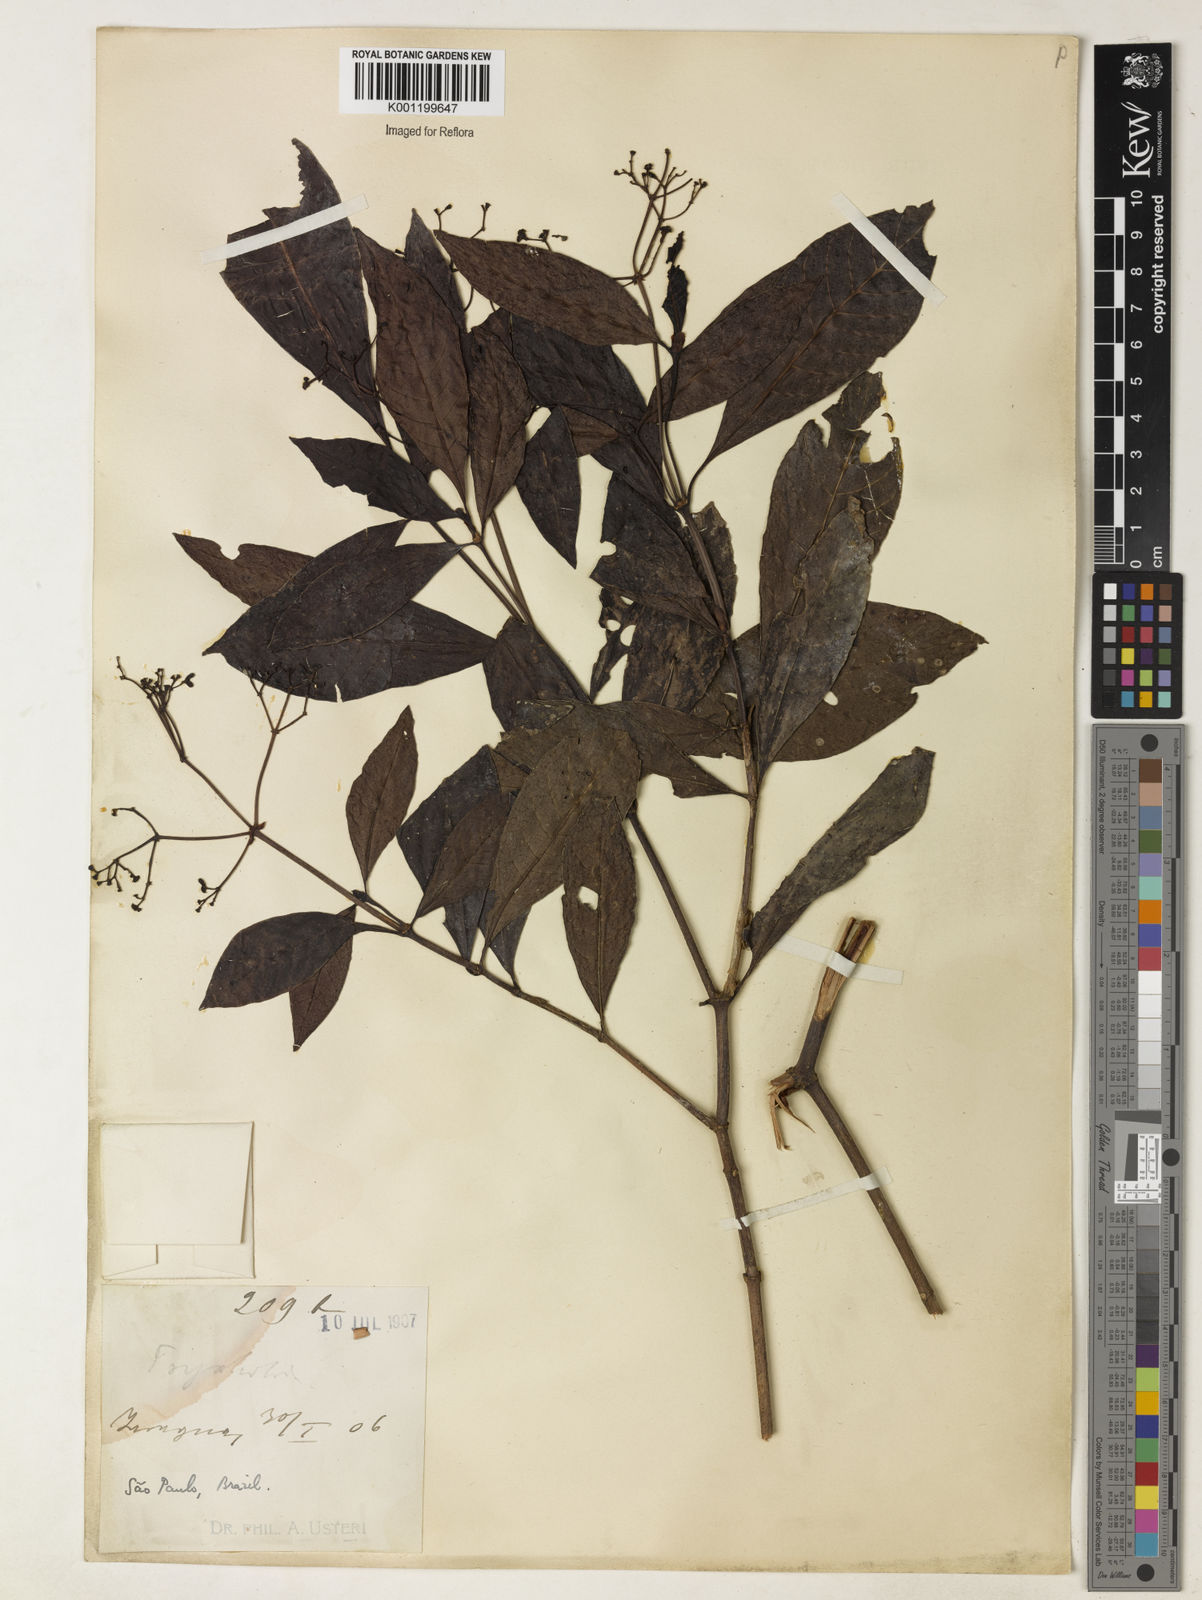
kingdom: Plantae
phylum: Tracheophyta
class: Magnoliopsida
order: Gentianales
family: Rubiaceae
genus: Psychotria
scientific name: Psychotria carthagenensis
